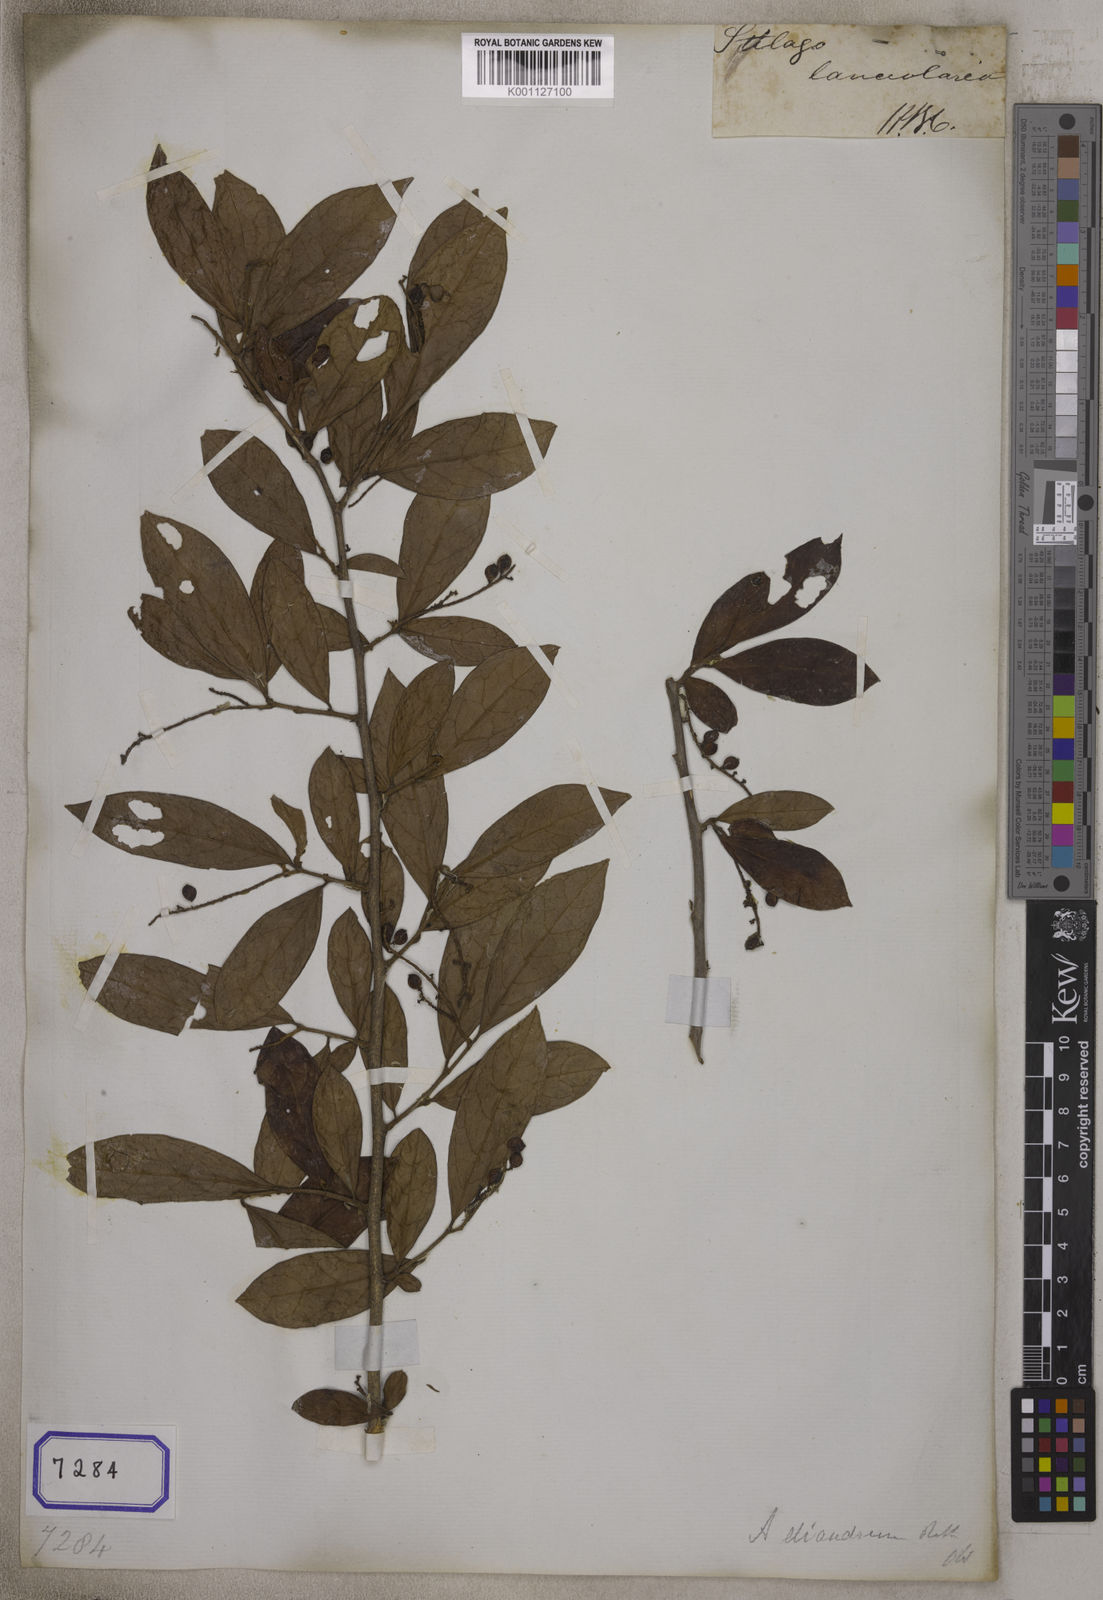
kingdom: Plantae
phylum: Tracheophyta
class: Magnoliopsida
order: Malpighiales
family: Phyllanthaceae
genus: Antidesma
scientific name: Antidesma acidum
